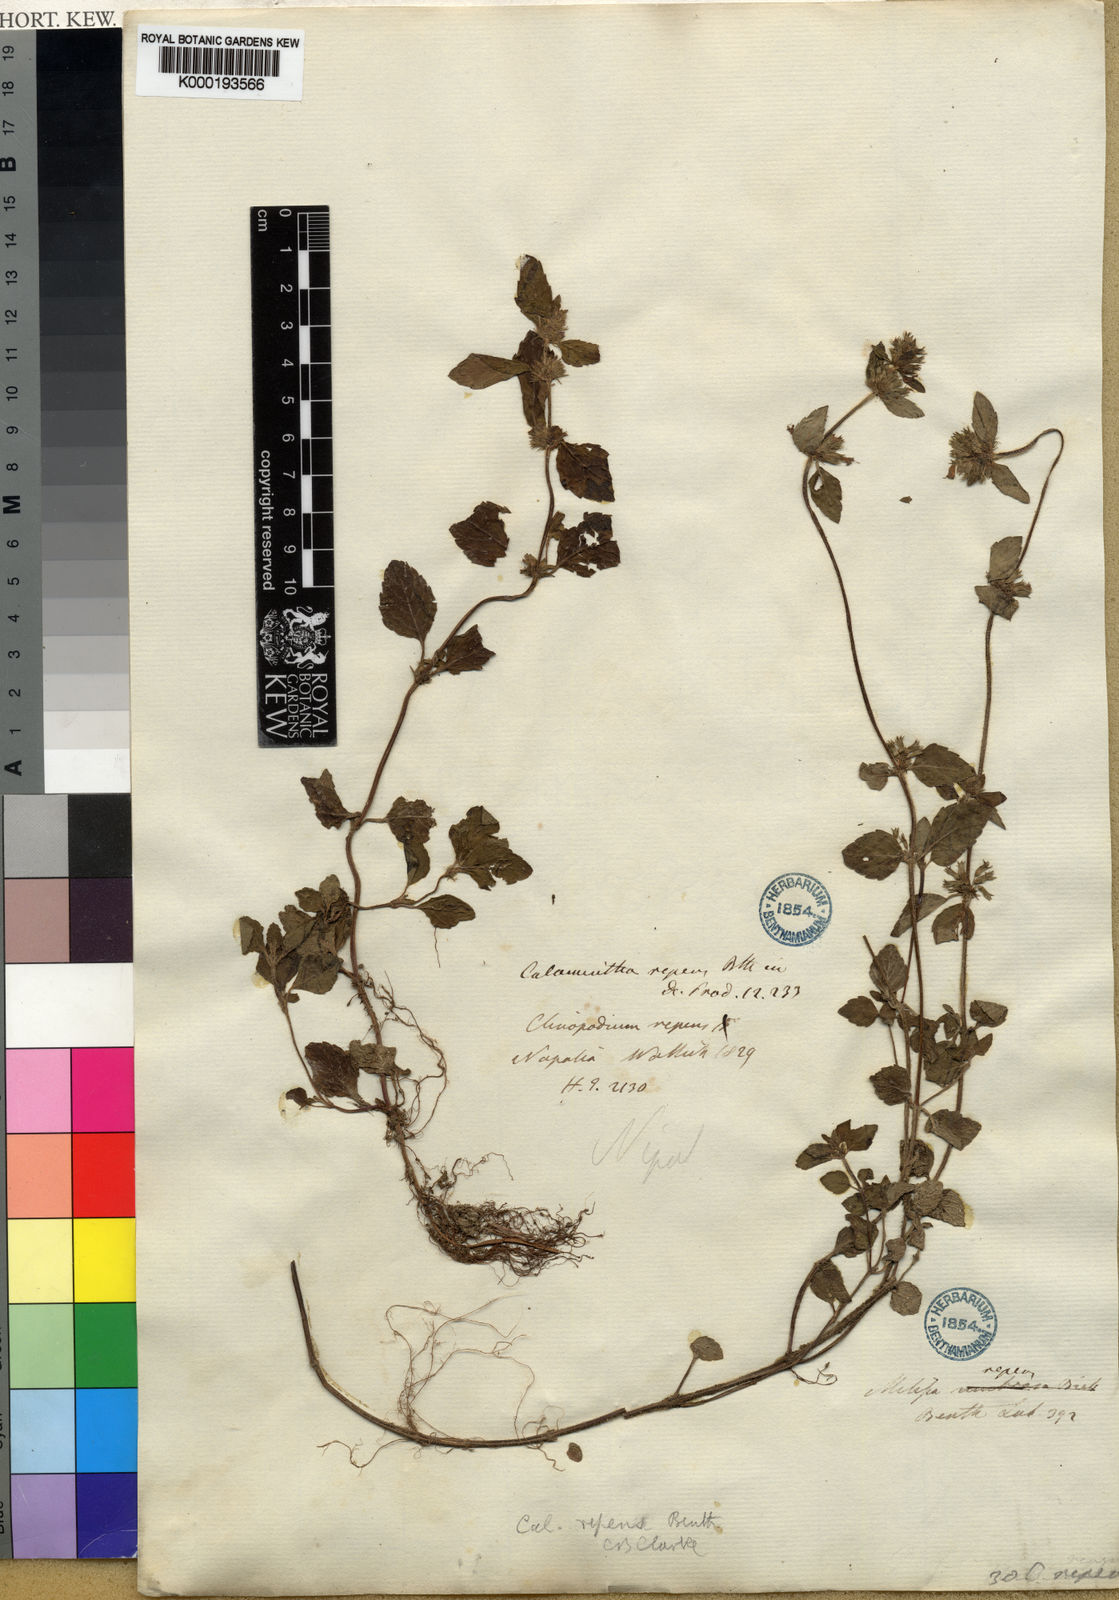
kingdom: Plantae
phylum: Tracheophyta
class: Magnoliopsida
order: Lamiales
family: Lamiaceae
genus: Clinopodium
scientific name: Clinopodium umbrosum
